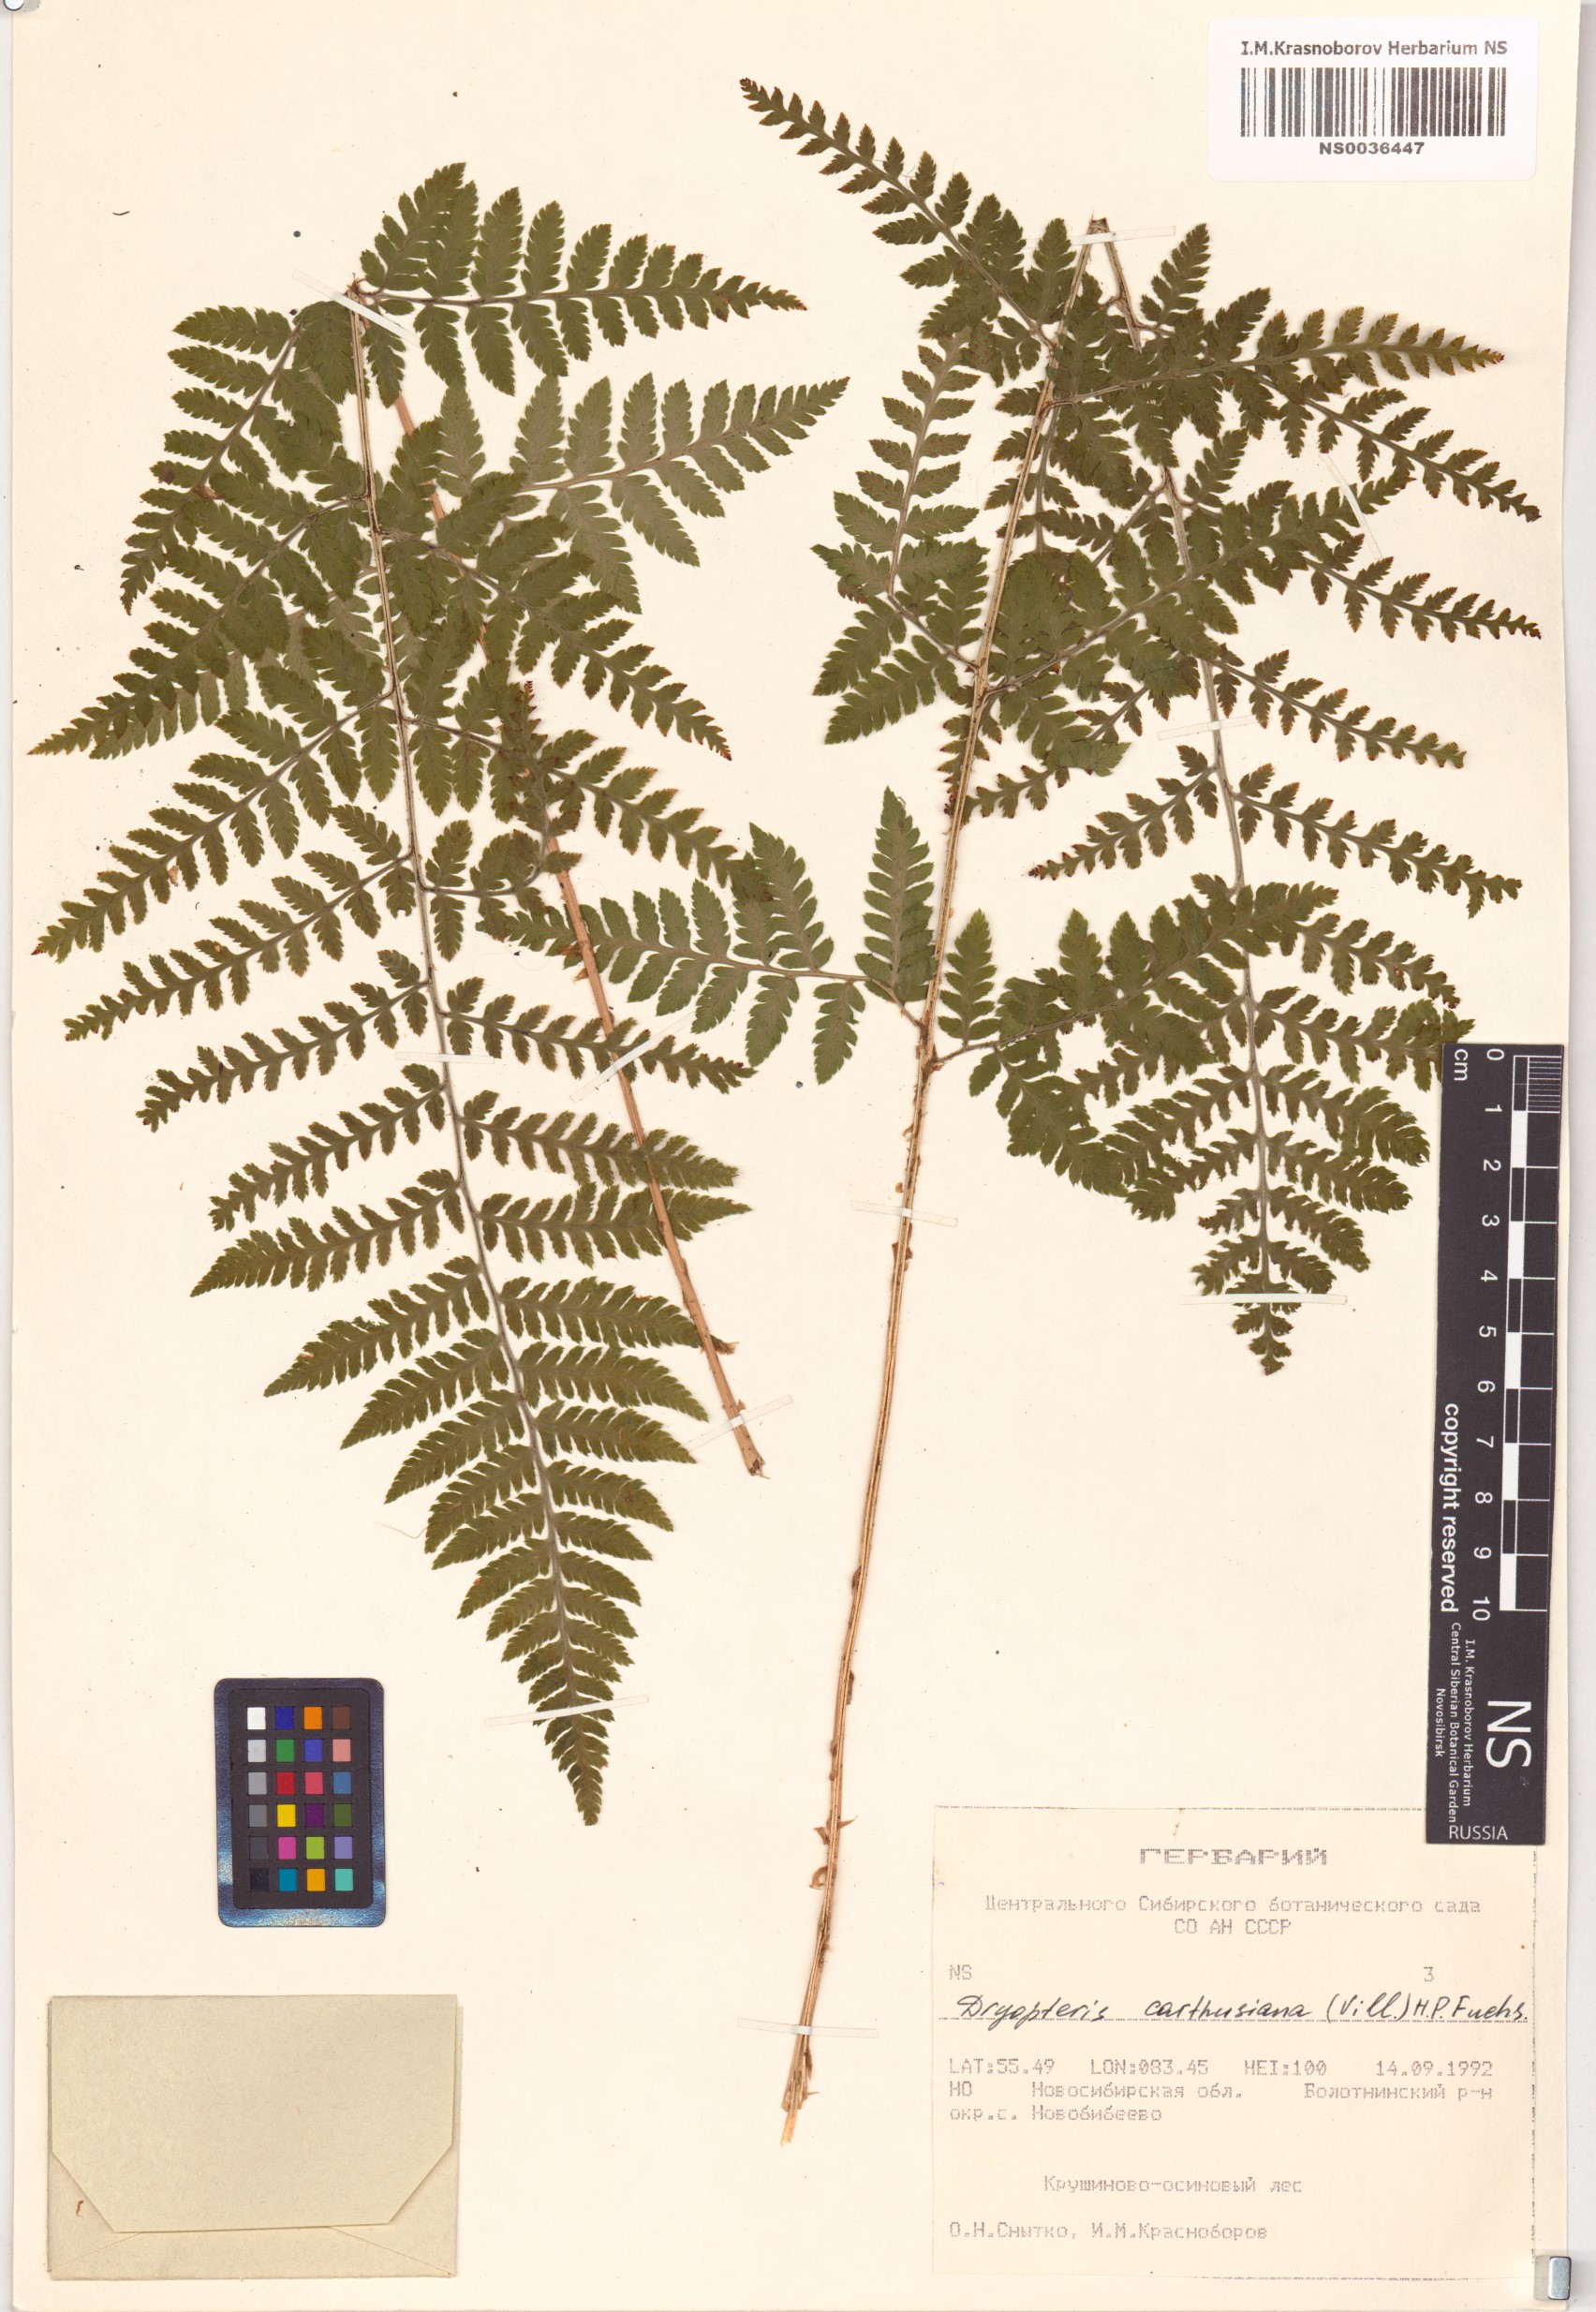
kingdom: Plantae
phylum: Tracheophyta
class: Polypodiopsida
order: Polypodiales
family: Dryopteridaceae
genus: Dryopteris
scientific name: Dryopteris carthusiana
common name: Narrow buckler-fern
